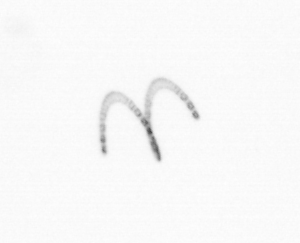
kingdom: Chromista
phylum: Ochrophyta
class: Bacillariophyceae
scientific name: Bacillariophyceae
